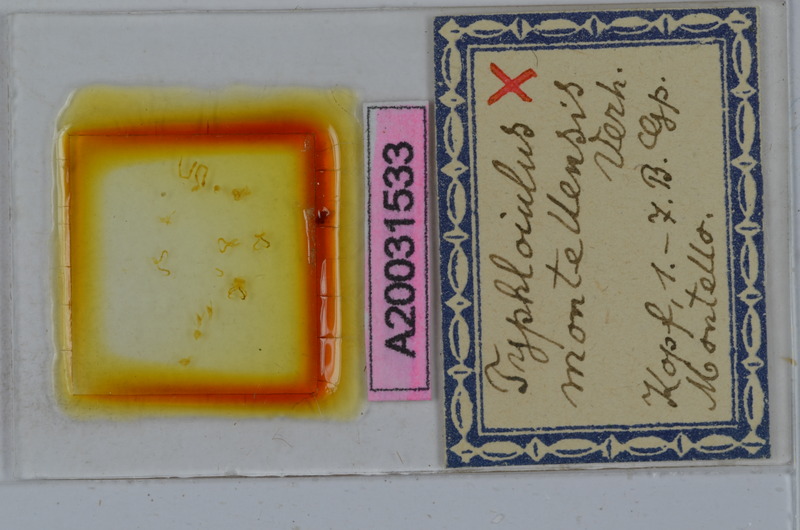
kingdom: Animalia
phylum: Arthropoda
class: Diplopoda
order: Julida
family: Julidae
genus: Stygiiulus
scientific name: Stygiiulus maximus
